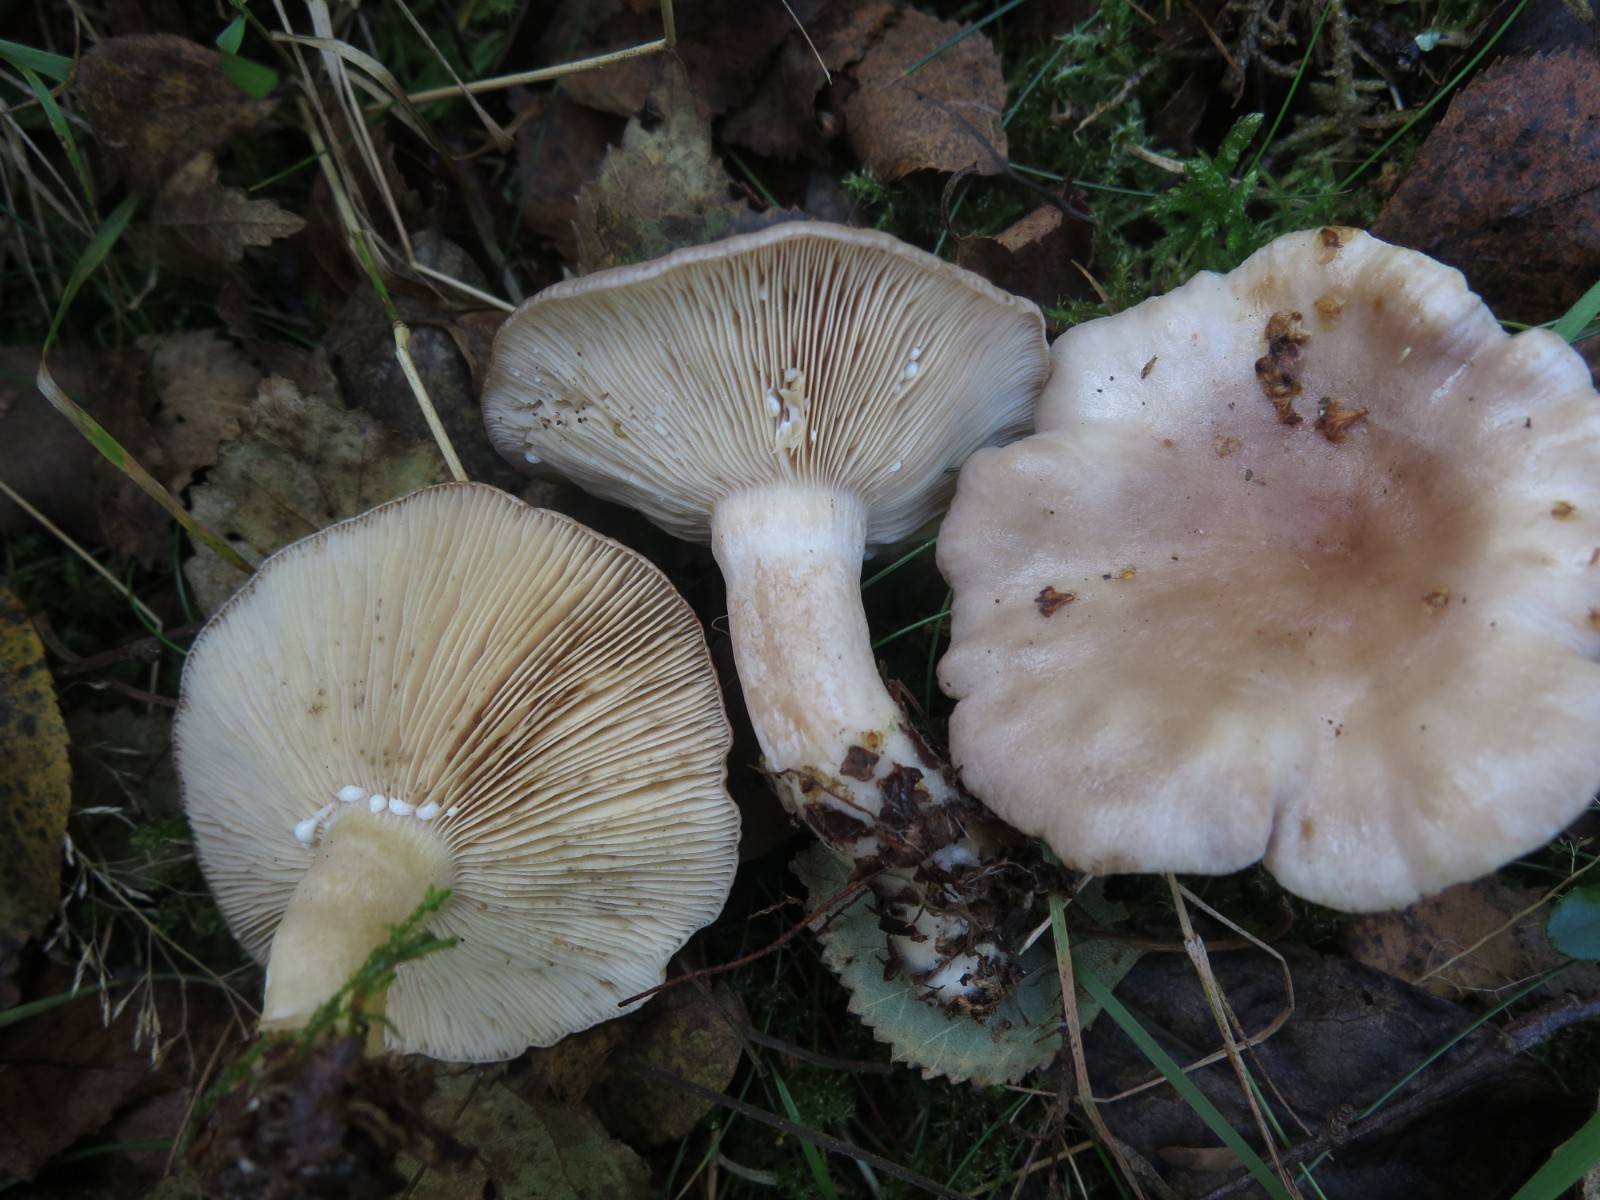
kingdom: Fungi
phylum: Basidiomycota
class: Agaricomycetes
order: Russulales
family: Russulaceae
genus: Lactarius
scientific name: Lactarius vietus
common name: violetgrå mælkehat
